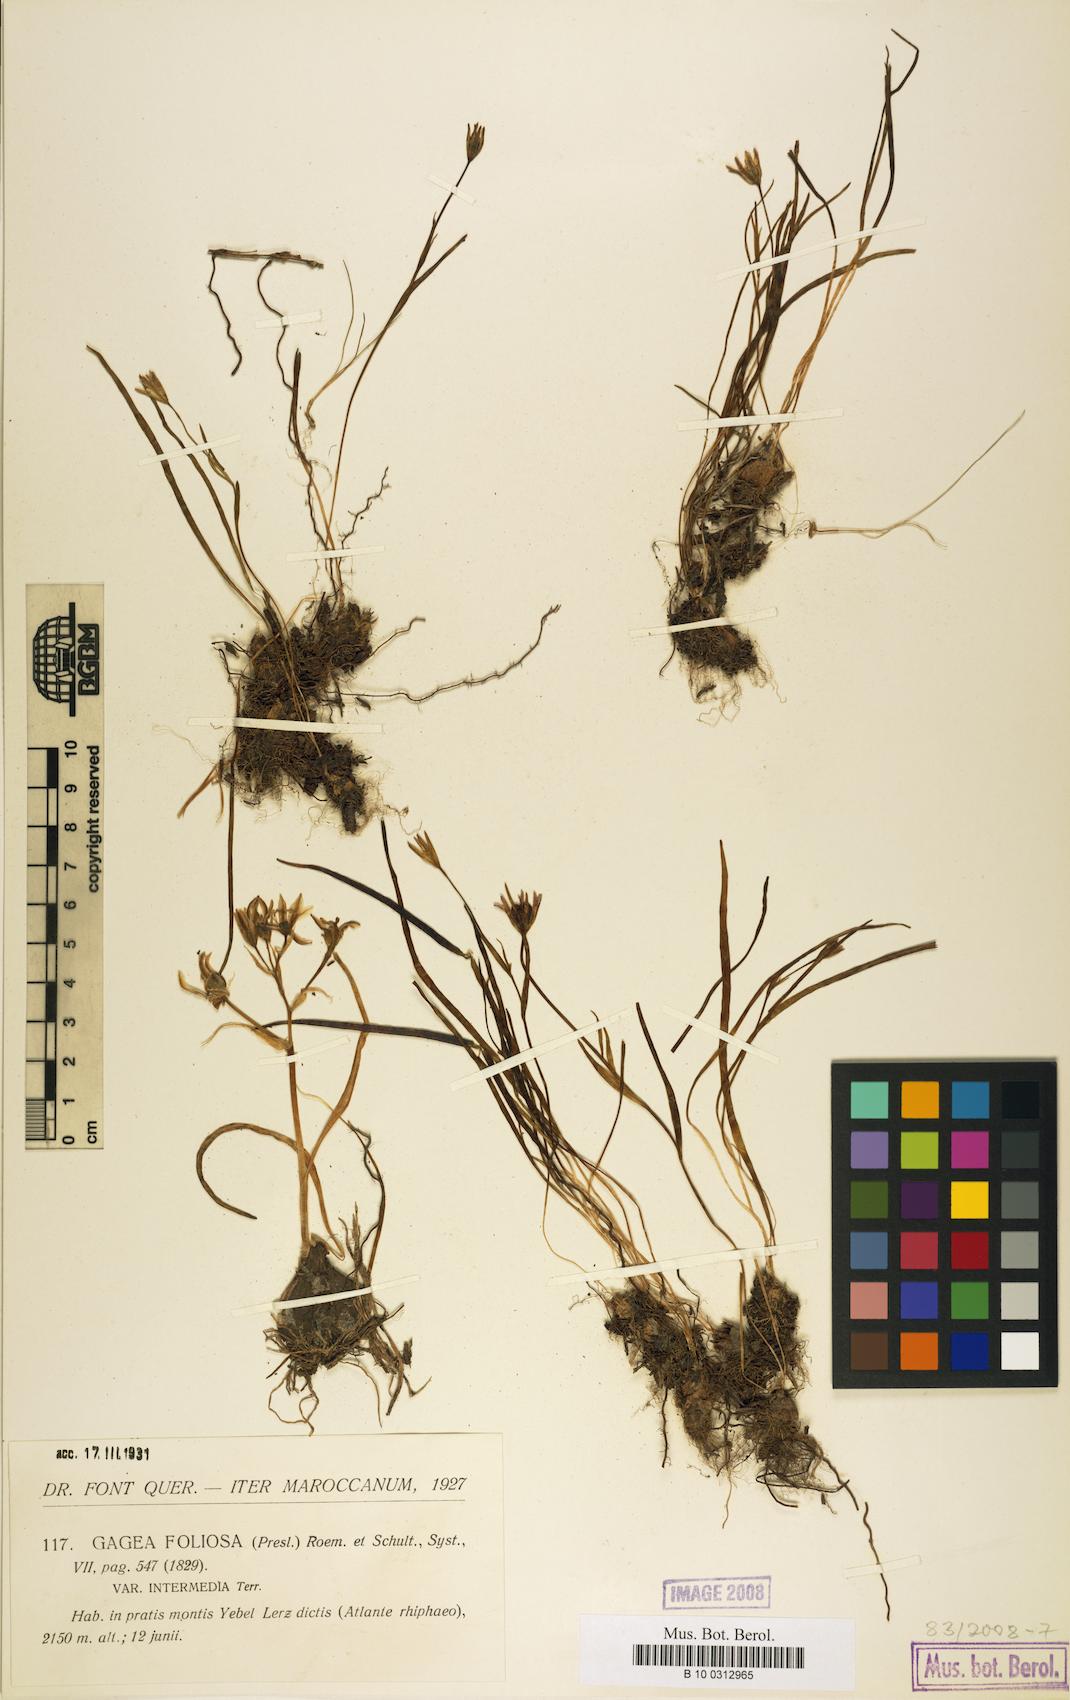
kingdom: Plantae
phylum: Tracheophyta
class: Liliopsida
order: Liliales
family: Liliaceae
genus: Gagea
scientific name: Gagea foliosa
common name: Leafy gagea
